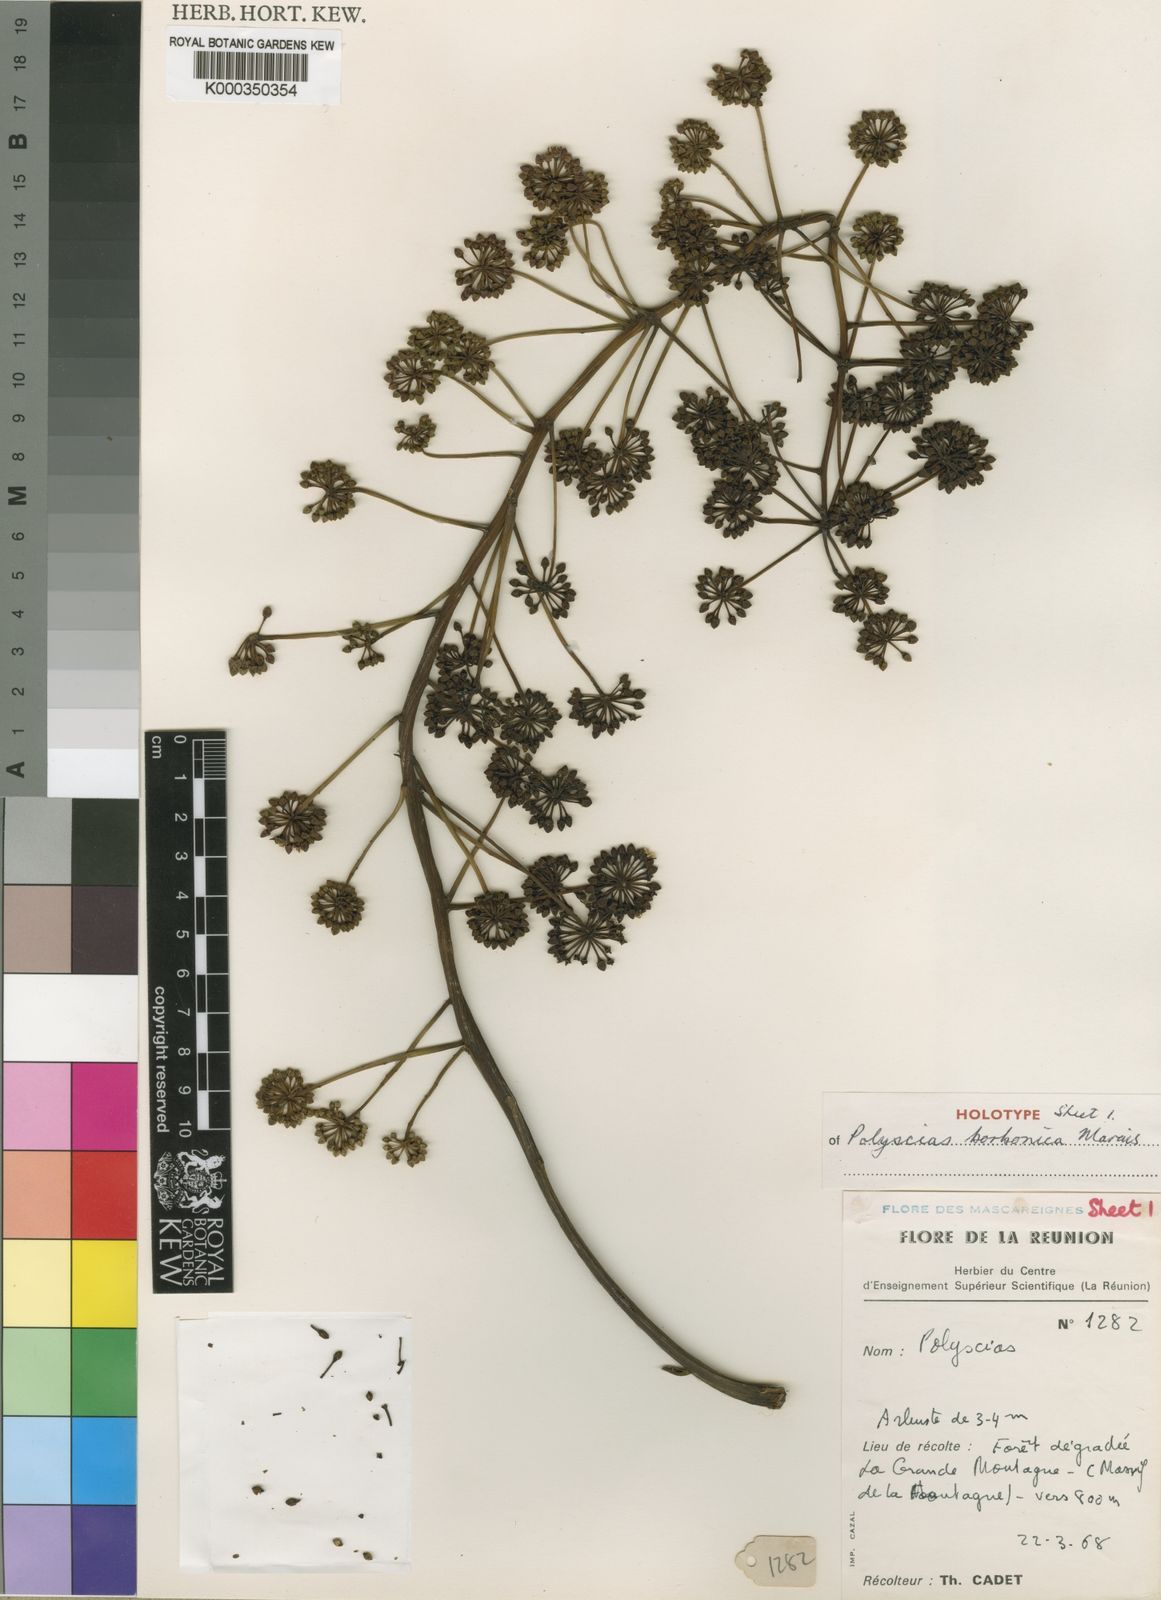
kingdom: Plantae
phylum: Tracheophyta
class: Magnoliopsida
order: Apiales
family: Araliaceae
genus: Polyscias
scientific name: Polyscias borbonica
